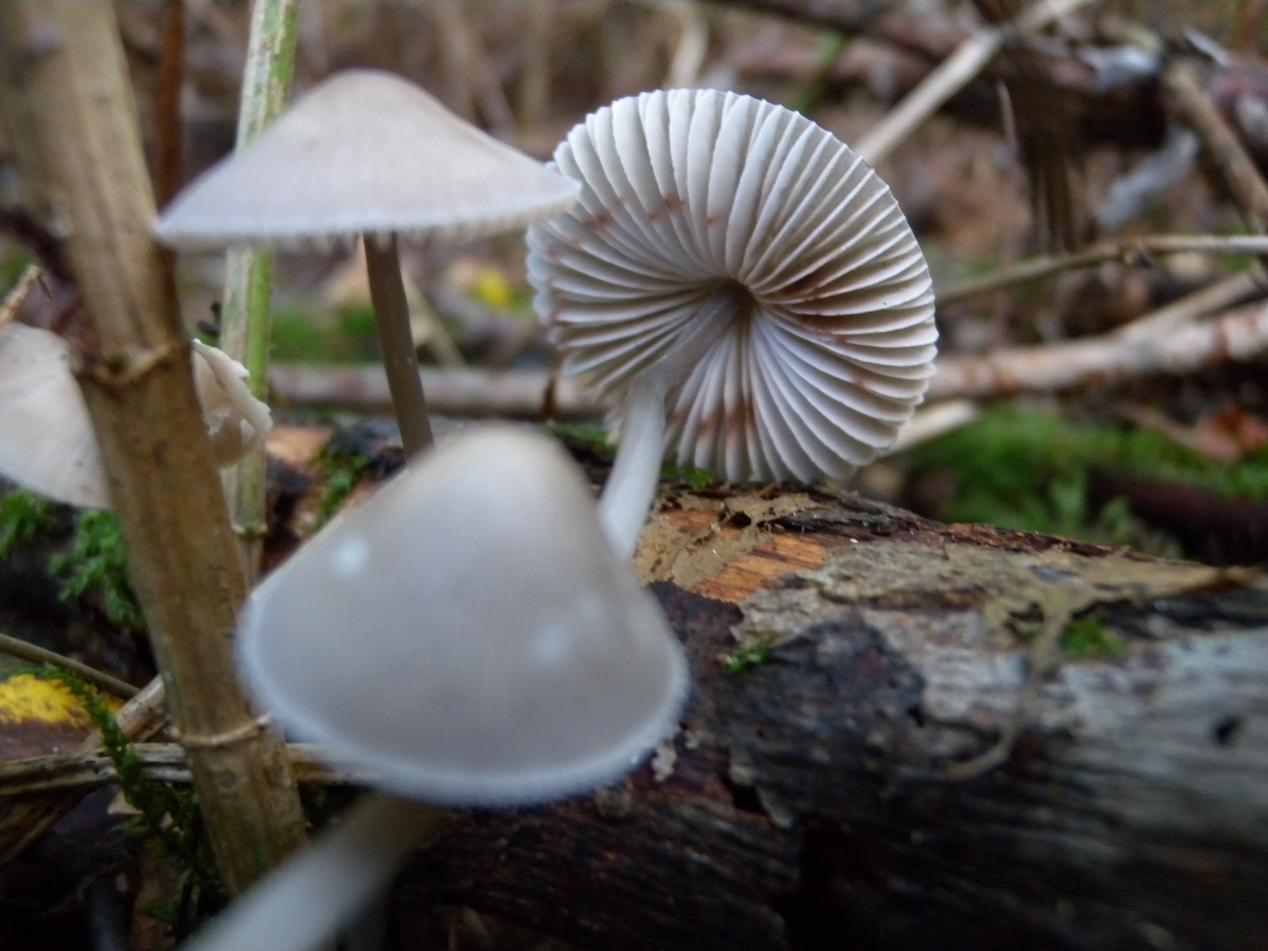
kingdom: Fungi
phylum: Basidiomycota
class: Agaricomycetes
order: Agaricales
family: Mycenaceae
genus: Mycena
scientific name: Mycena polygramma
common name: mangestribet huesvamp
